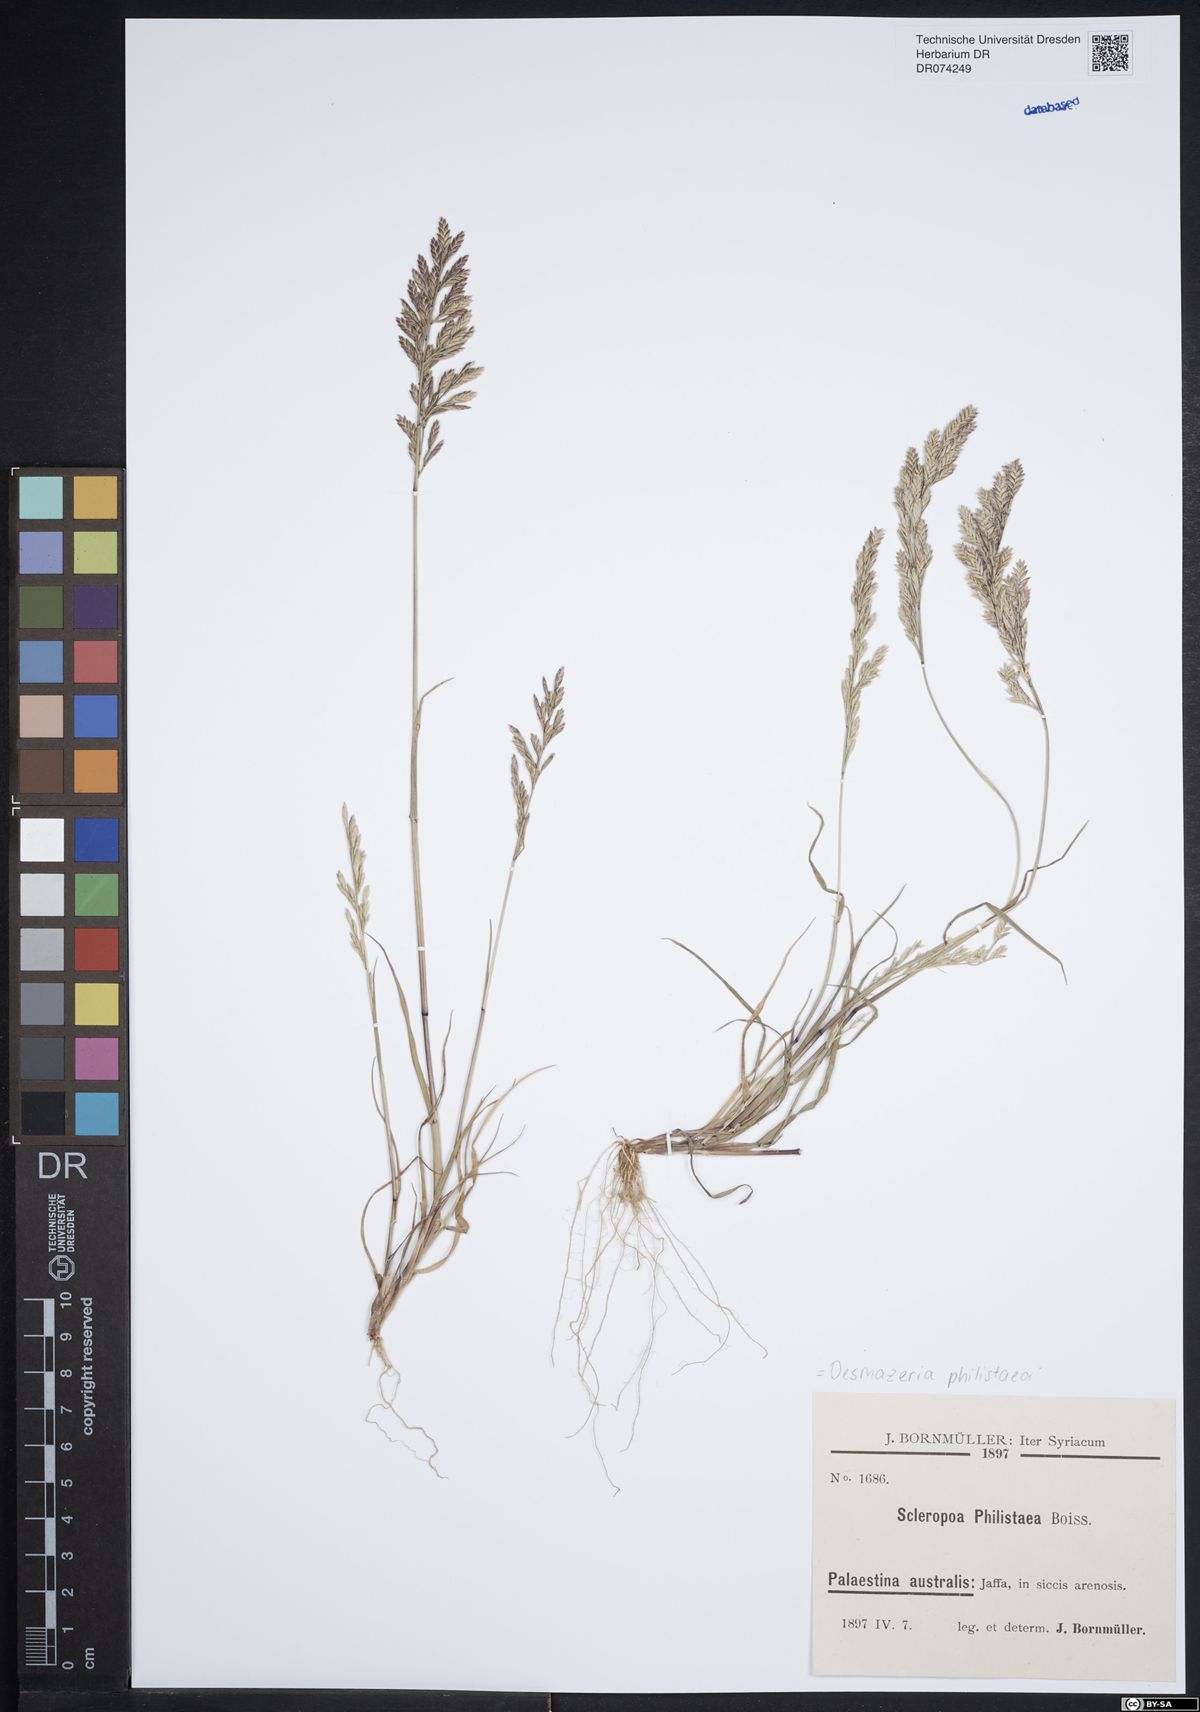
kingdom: Plantae
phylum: Tracheophyta
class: Liliopsida
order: Poales
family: Poaceae
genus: Desmazeria
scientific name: Desmazeria philistaea
